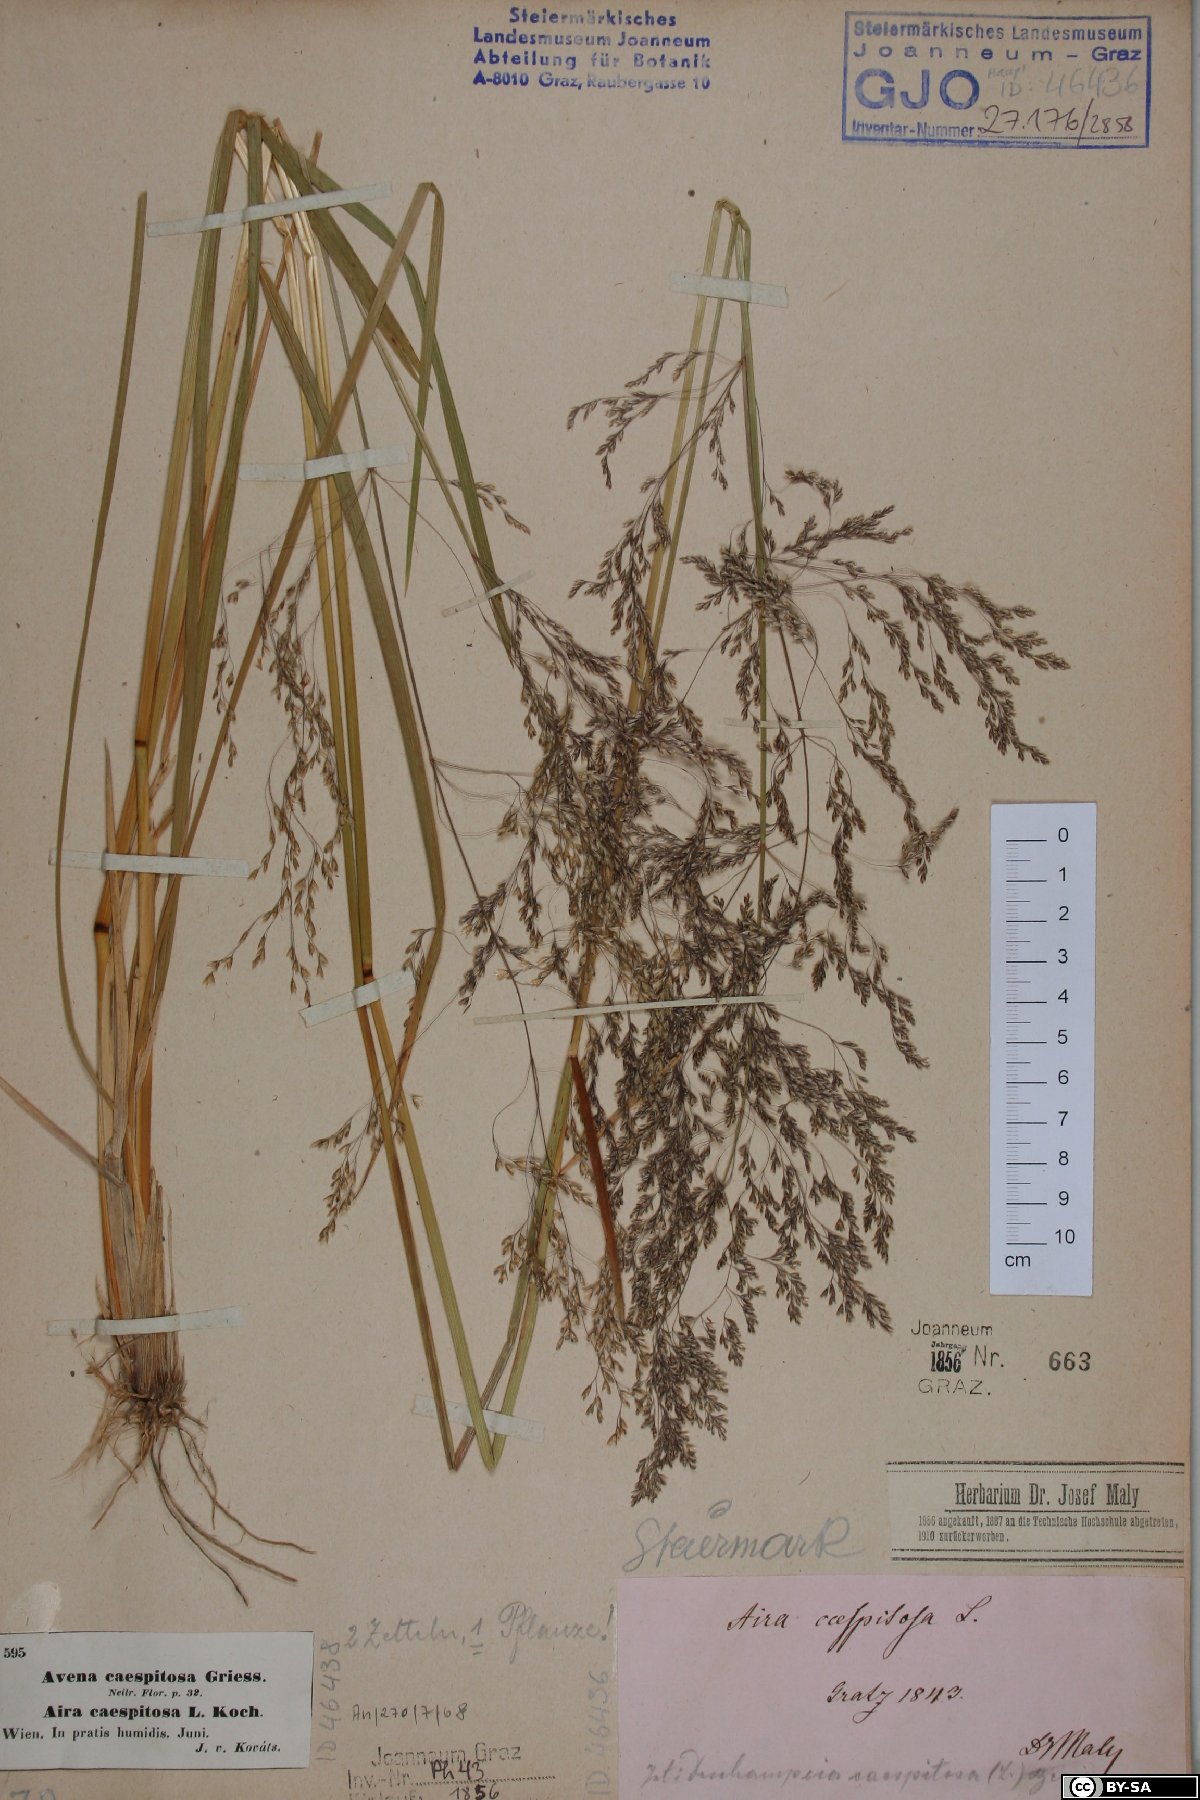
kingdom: Plantae
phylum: Tracheophyta
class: Liliopsida
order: Poales
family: Poaceae
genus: Deschampsia
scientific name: Deschampsia cespitosa
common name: Tufted hair-grass
